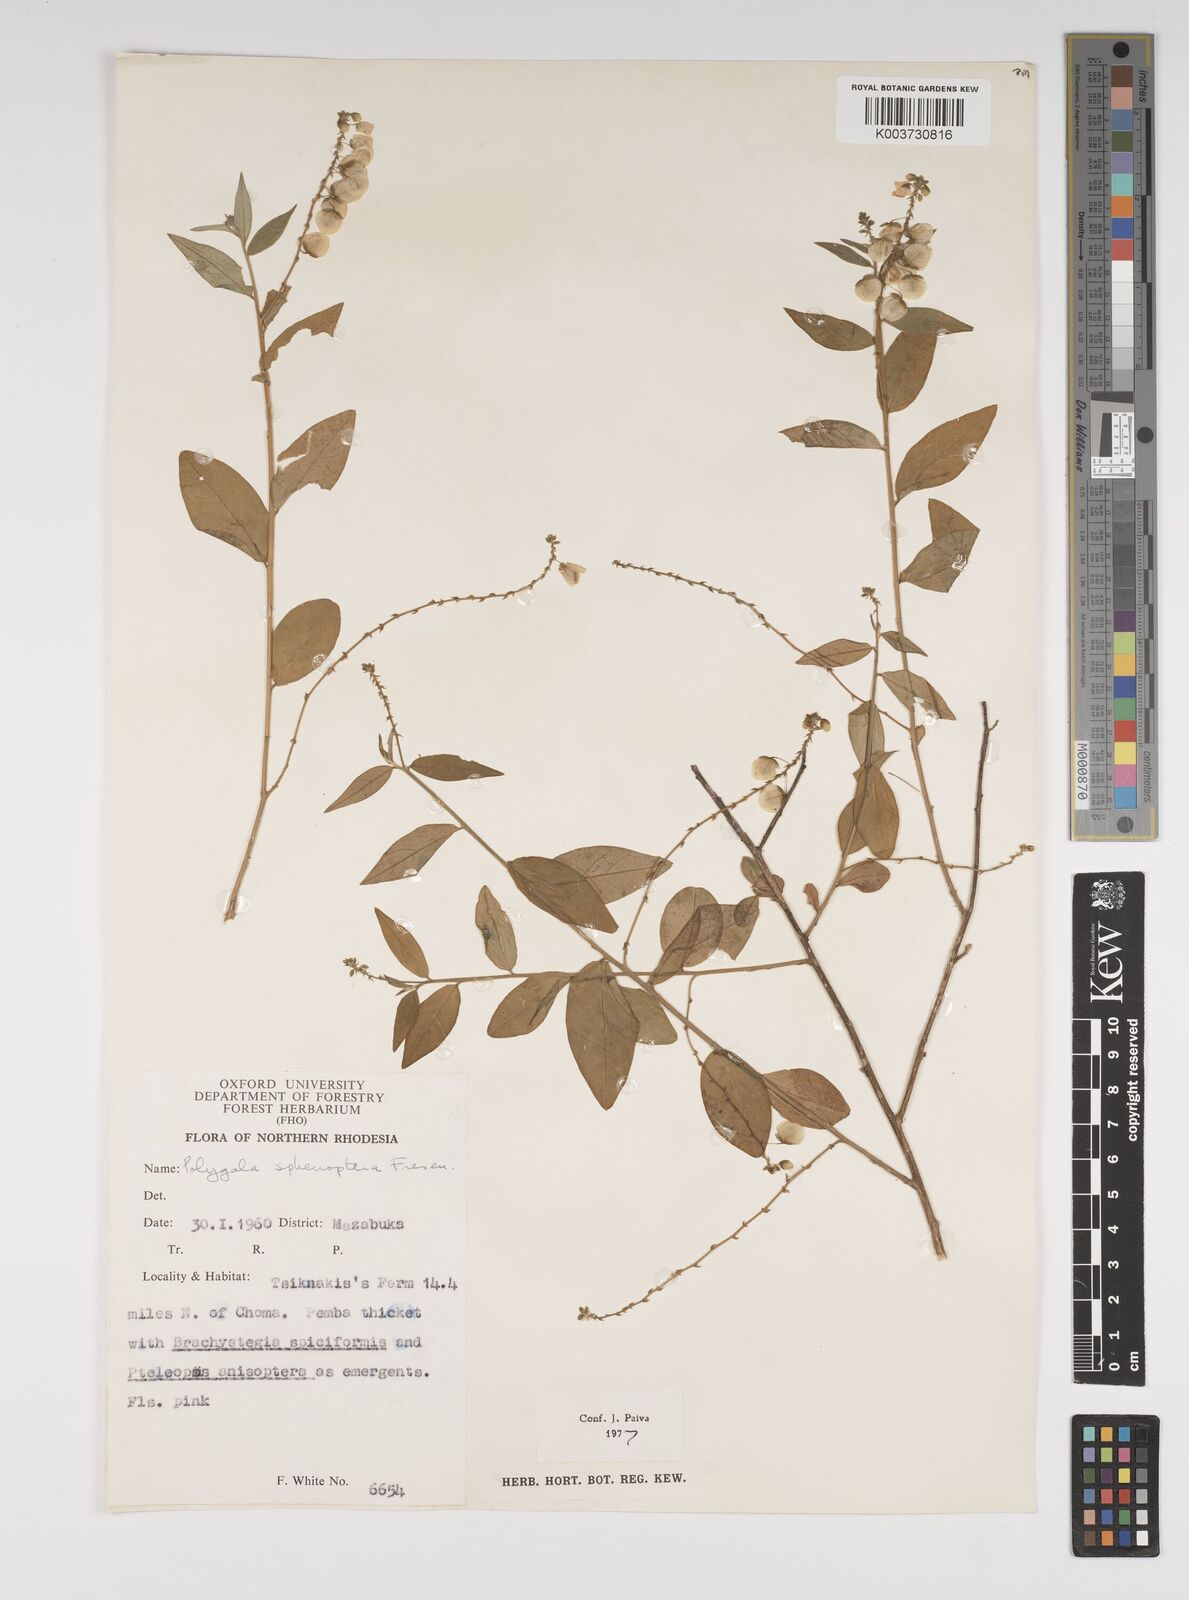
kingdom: Plantae
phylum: Tracheophyta
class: Magnoliopsida
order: Fabales
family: Polygalaceae
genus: Polygala
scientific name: Polygala sphenoptera
